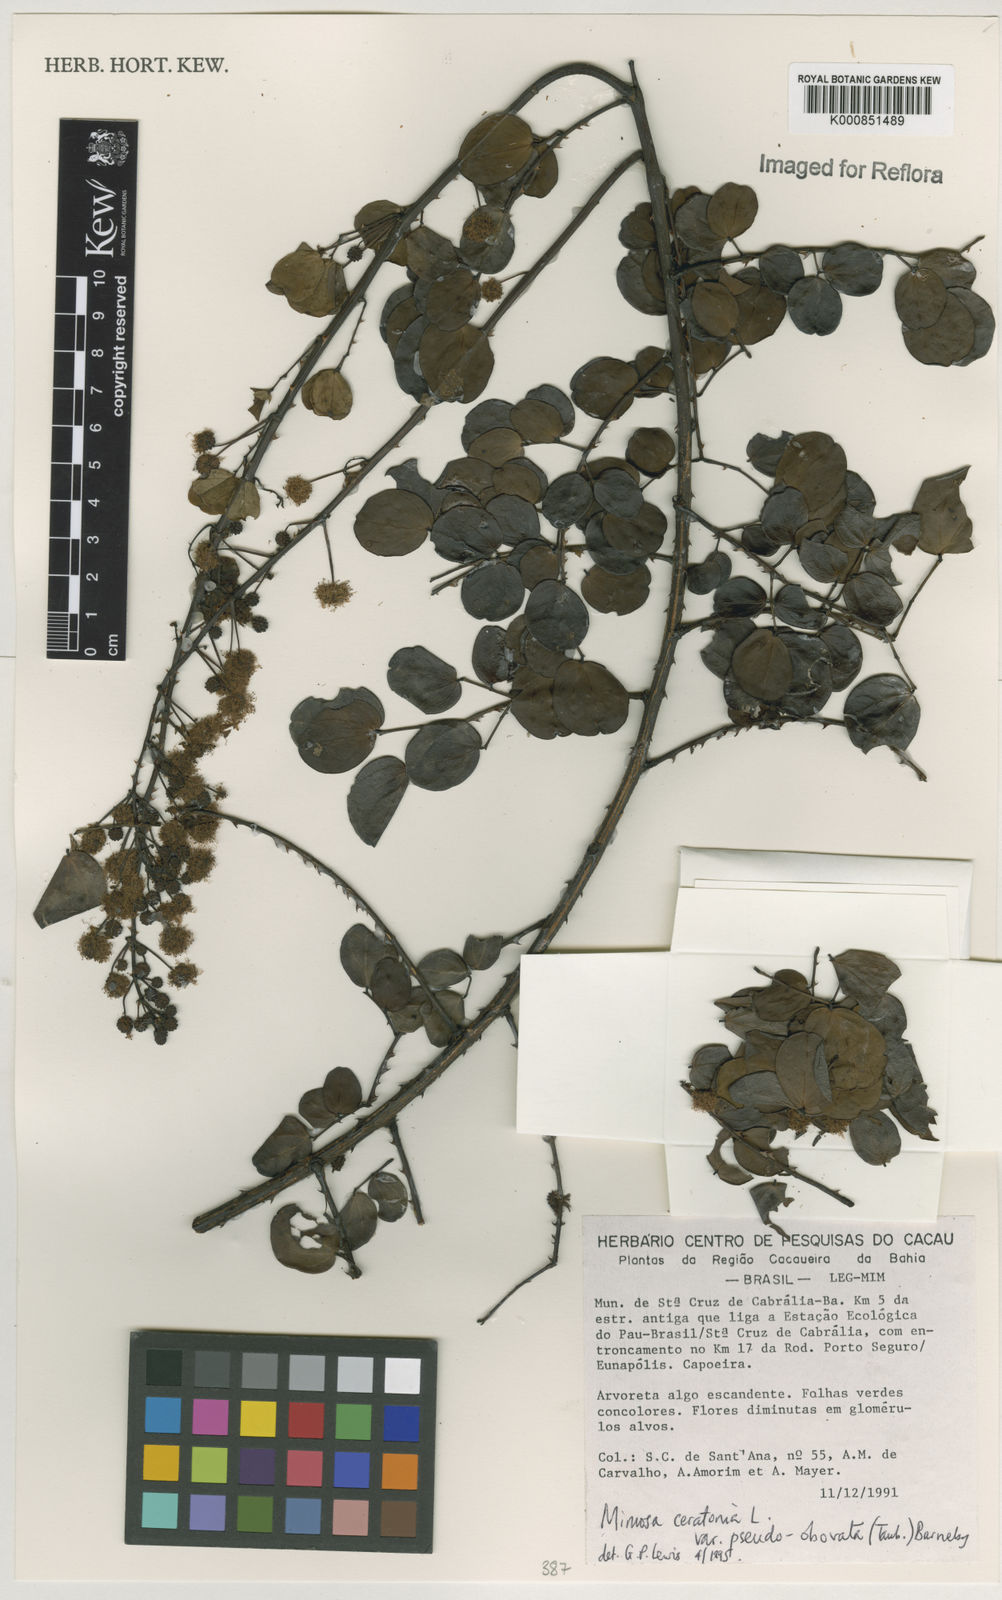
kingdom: Plantae
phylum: Tracheophyta
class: Magnoliopsida
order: Fabales
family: Fabaceae
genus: Mimosa
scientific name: Mimosa ceratonia
